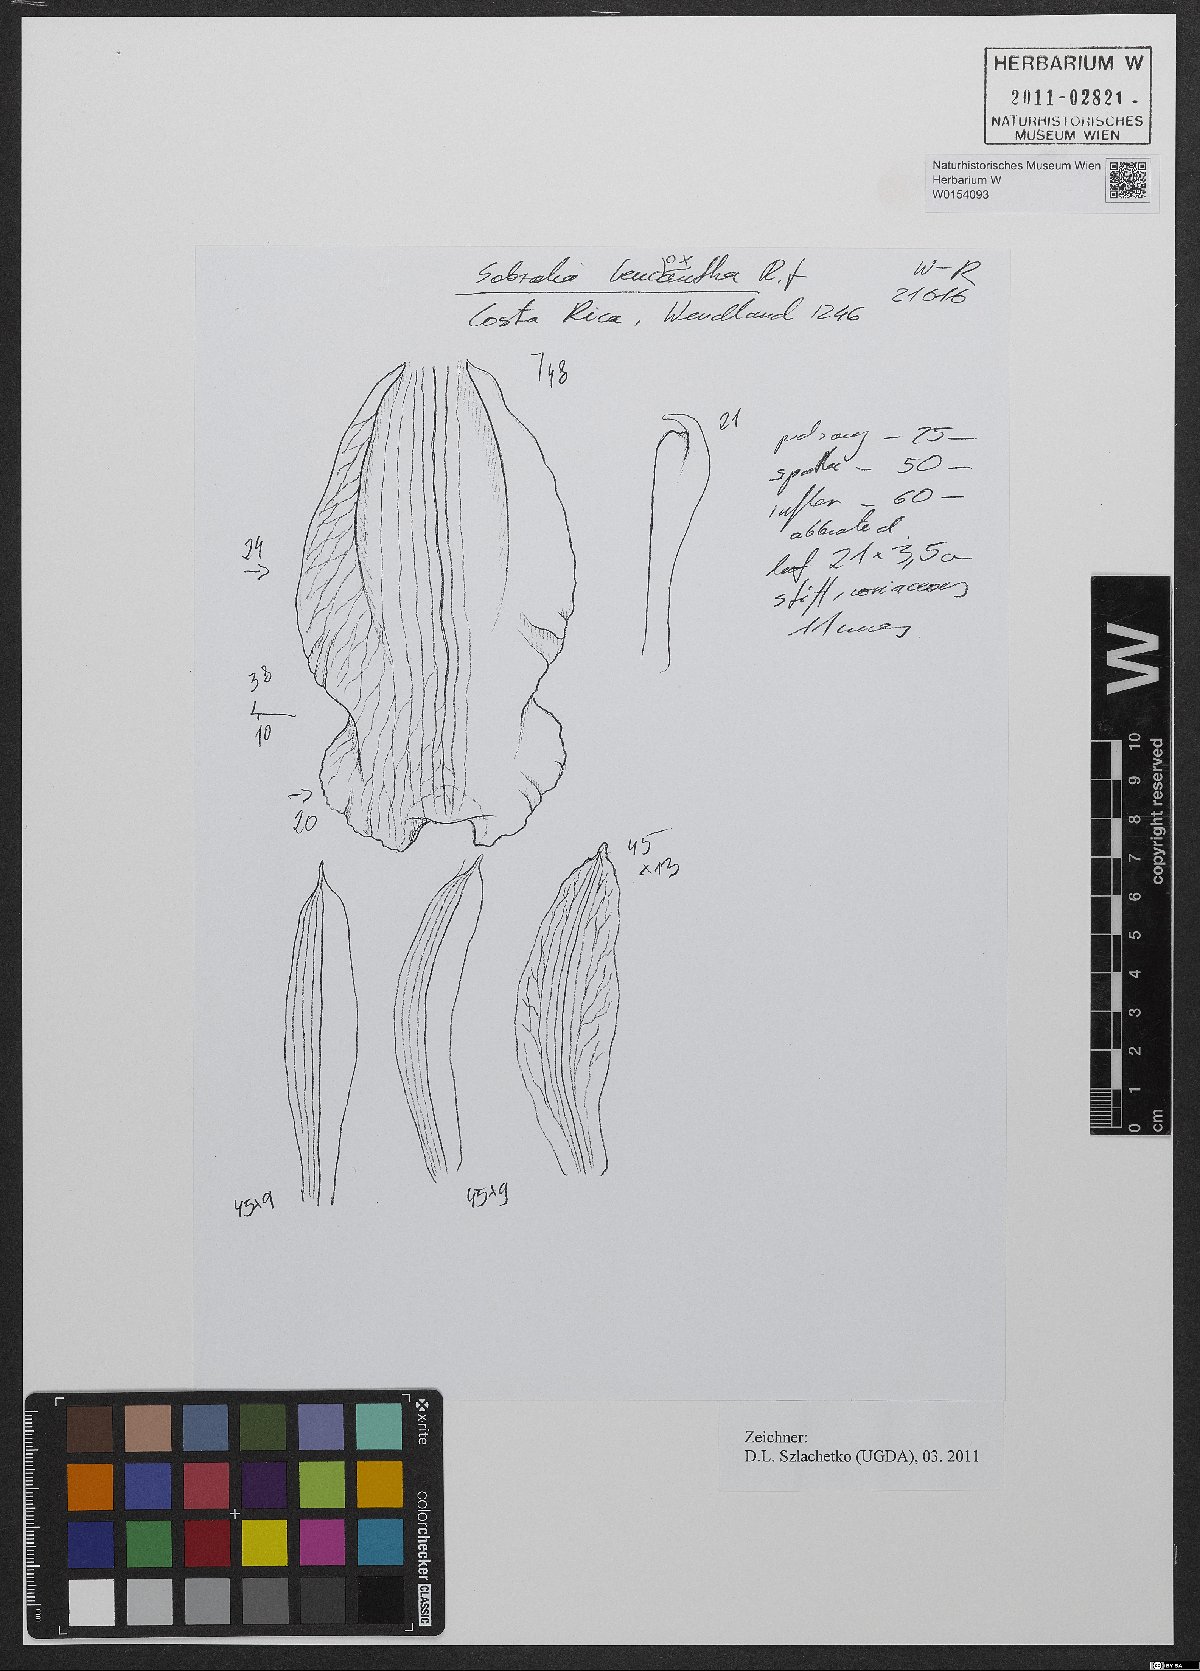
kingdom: Plantae
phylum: Tracheophyta
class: Liliopsida
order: Asparagales
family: Orchidaceae
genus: Sobralia
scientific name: Sobralia leucoxantha
